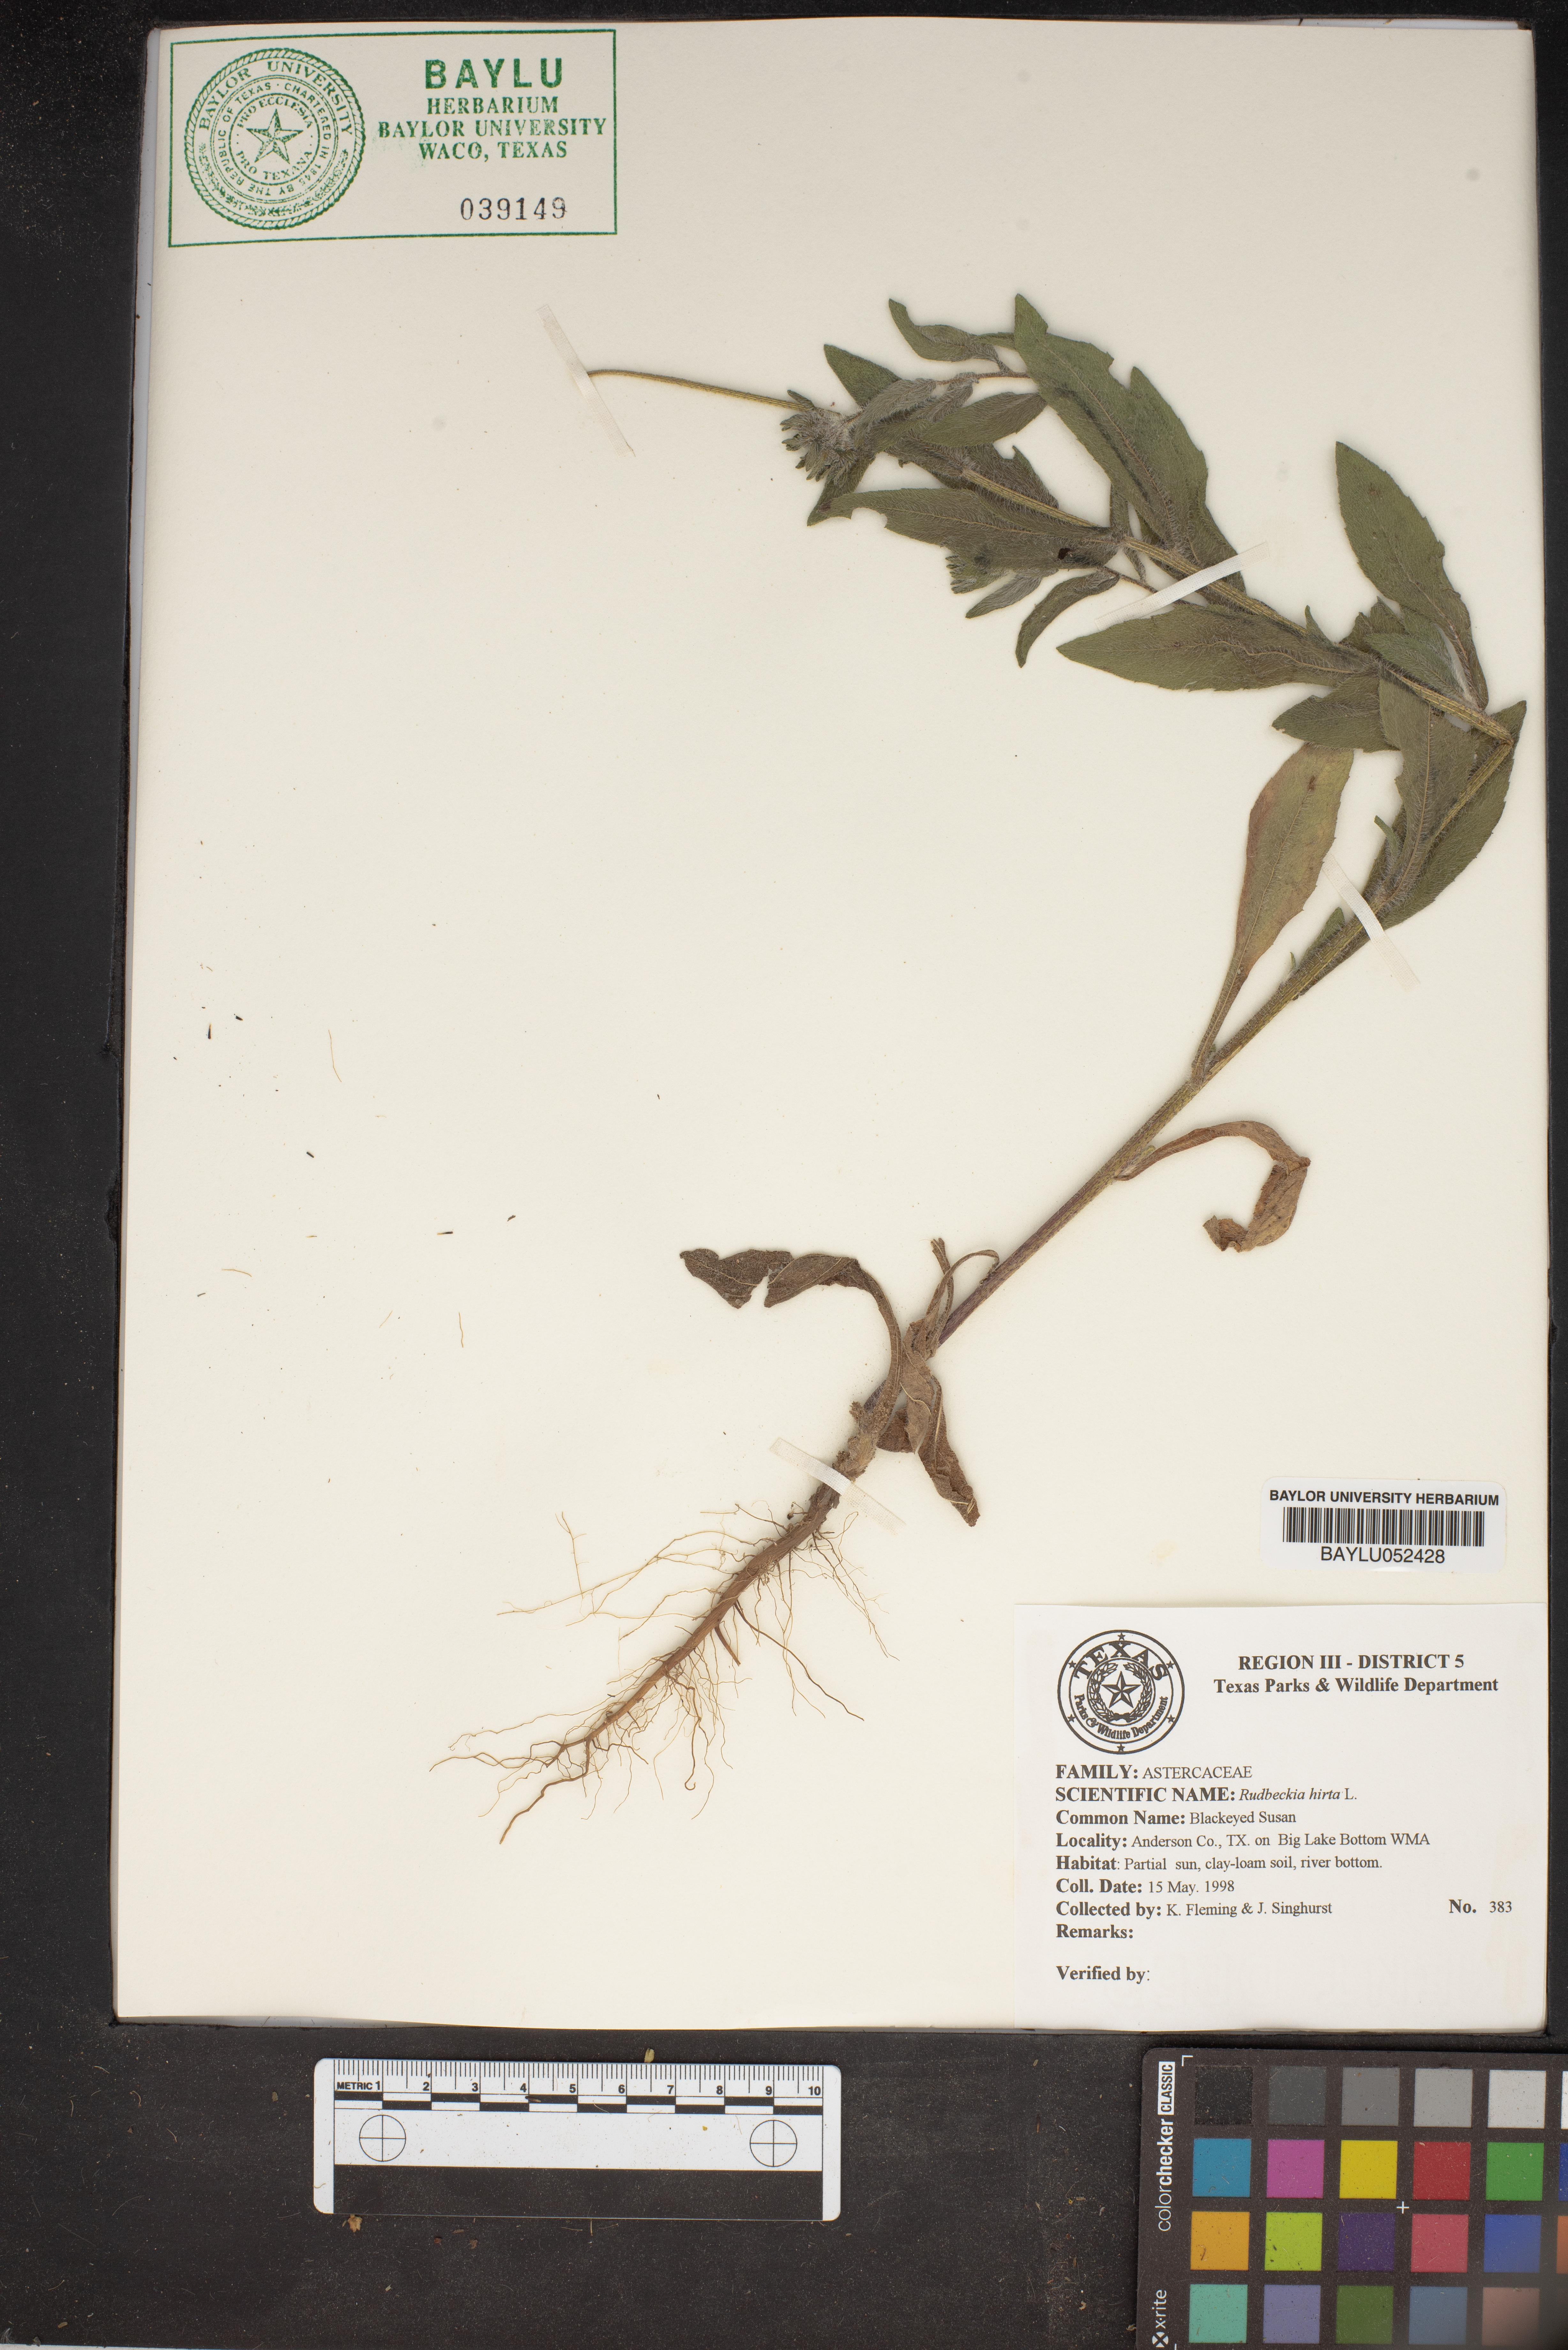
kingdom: Plantae
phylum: Tracheophyta
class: Magnoliopsida
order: Asterales
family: Asteraceae
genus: Rudbeckia
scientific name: Rudbeckia hirta
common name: Black-eyed-susan
